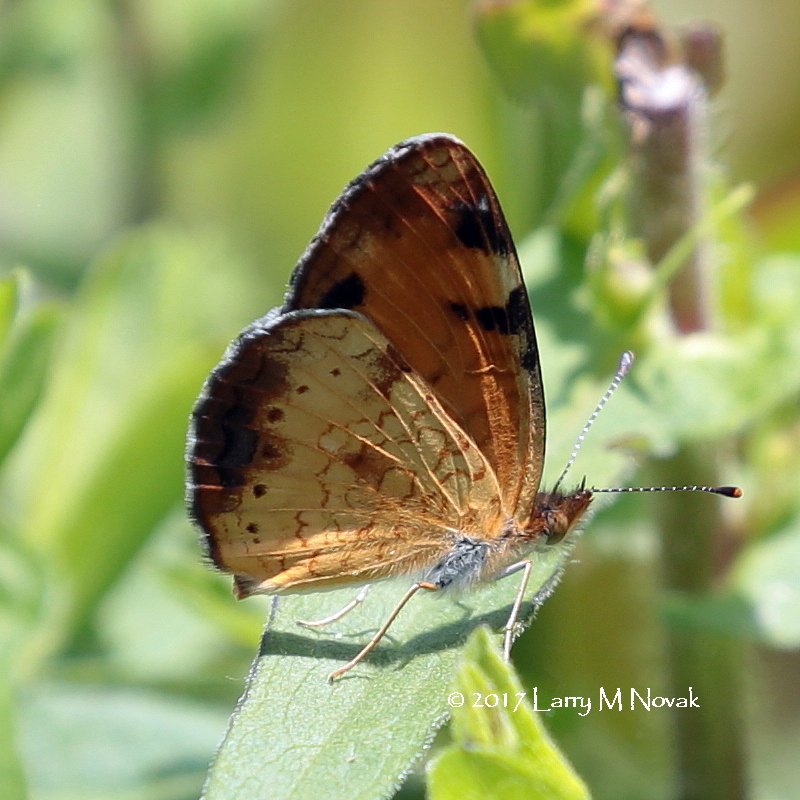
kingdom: Animalia
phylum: Arthropoda
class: Insecta
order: Lepidoptera
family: Nymphalidae
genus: Phyciodes
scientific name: Phyciodes tharos
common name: Northern Crescent
